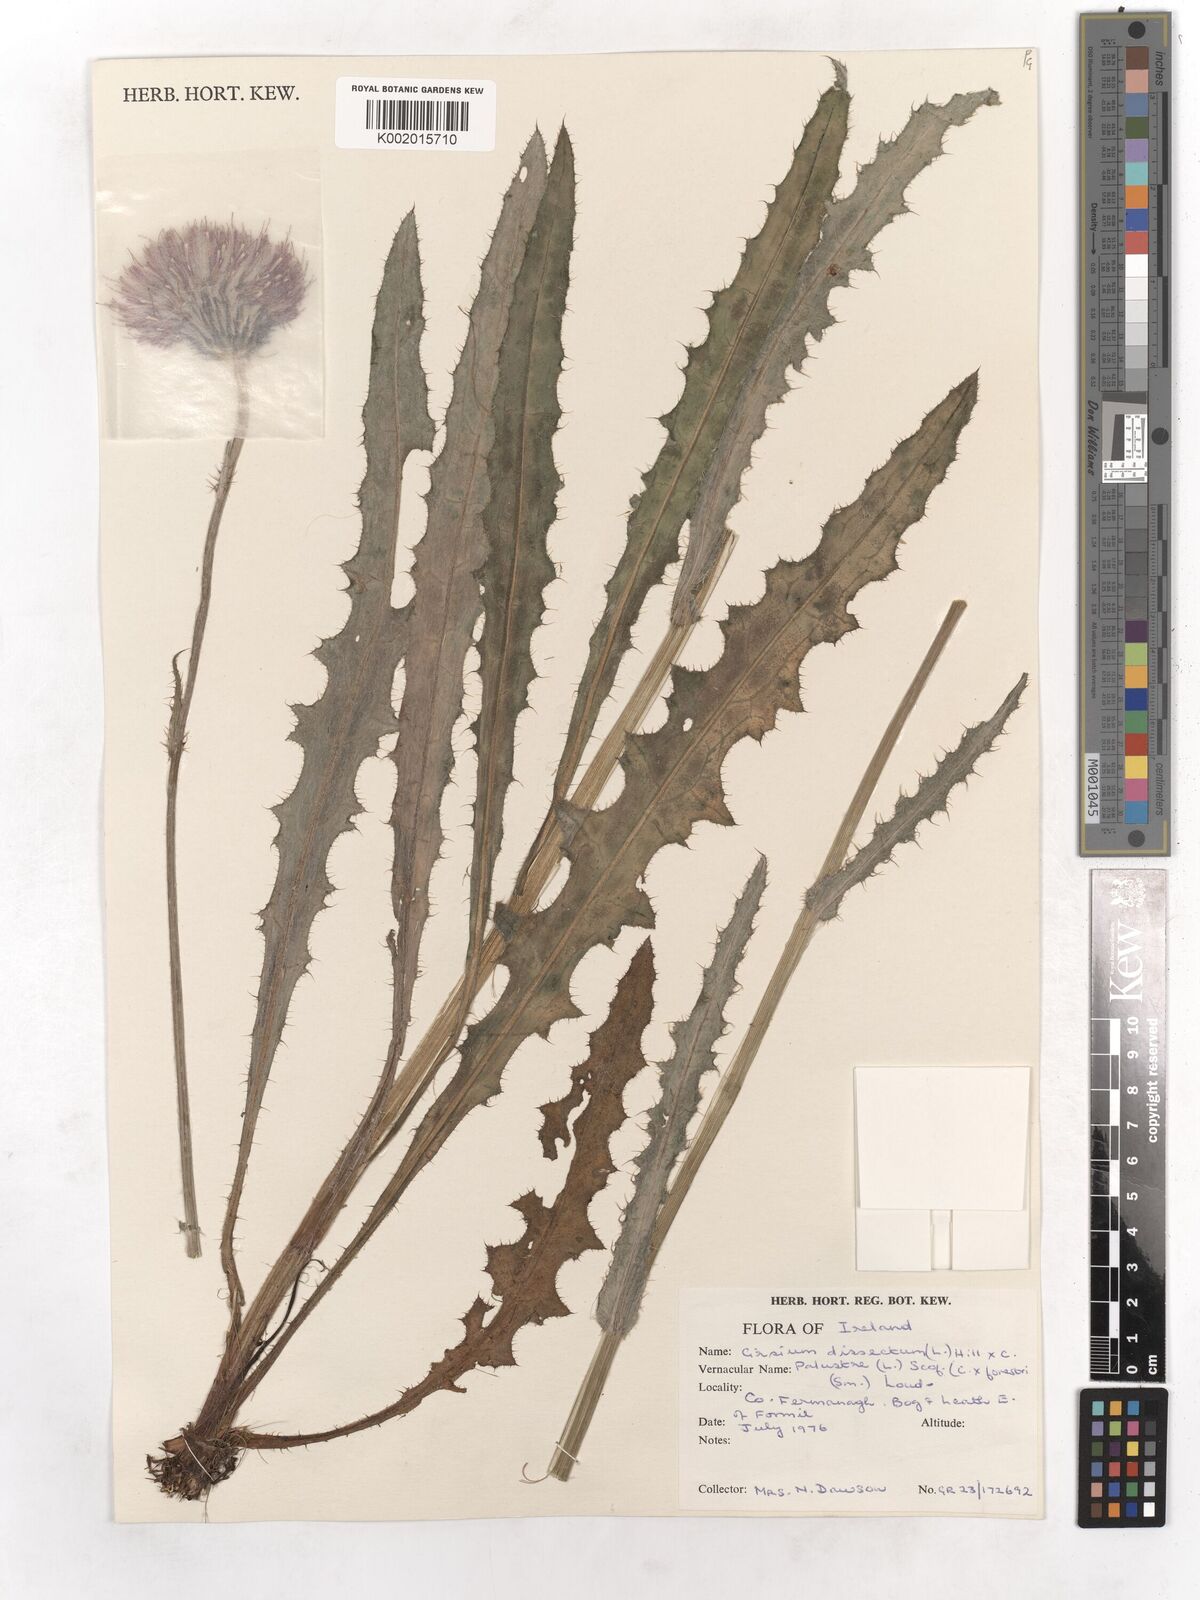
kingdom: Plantae
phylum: Tracheophyta
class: Magnoliopsida
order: Asterales
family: Asteraceae
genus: Cirsium
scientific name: Cirsium dissectum
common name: Meadow thistle
